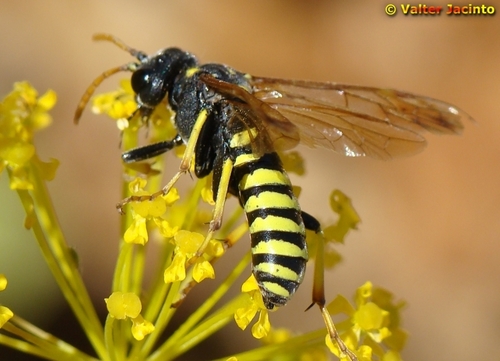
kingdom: Animalia
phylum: Arthropoda
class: Insecta
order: Hymenoptera
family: Tenthredinidae
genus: Tenthredo
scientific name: Tenthredo meridiana
